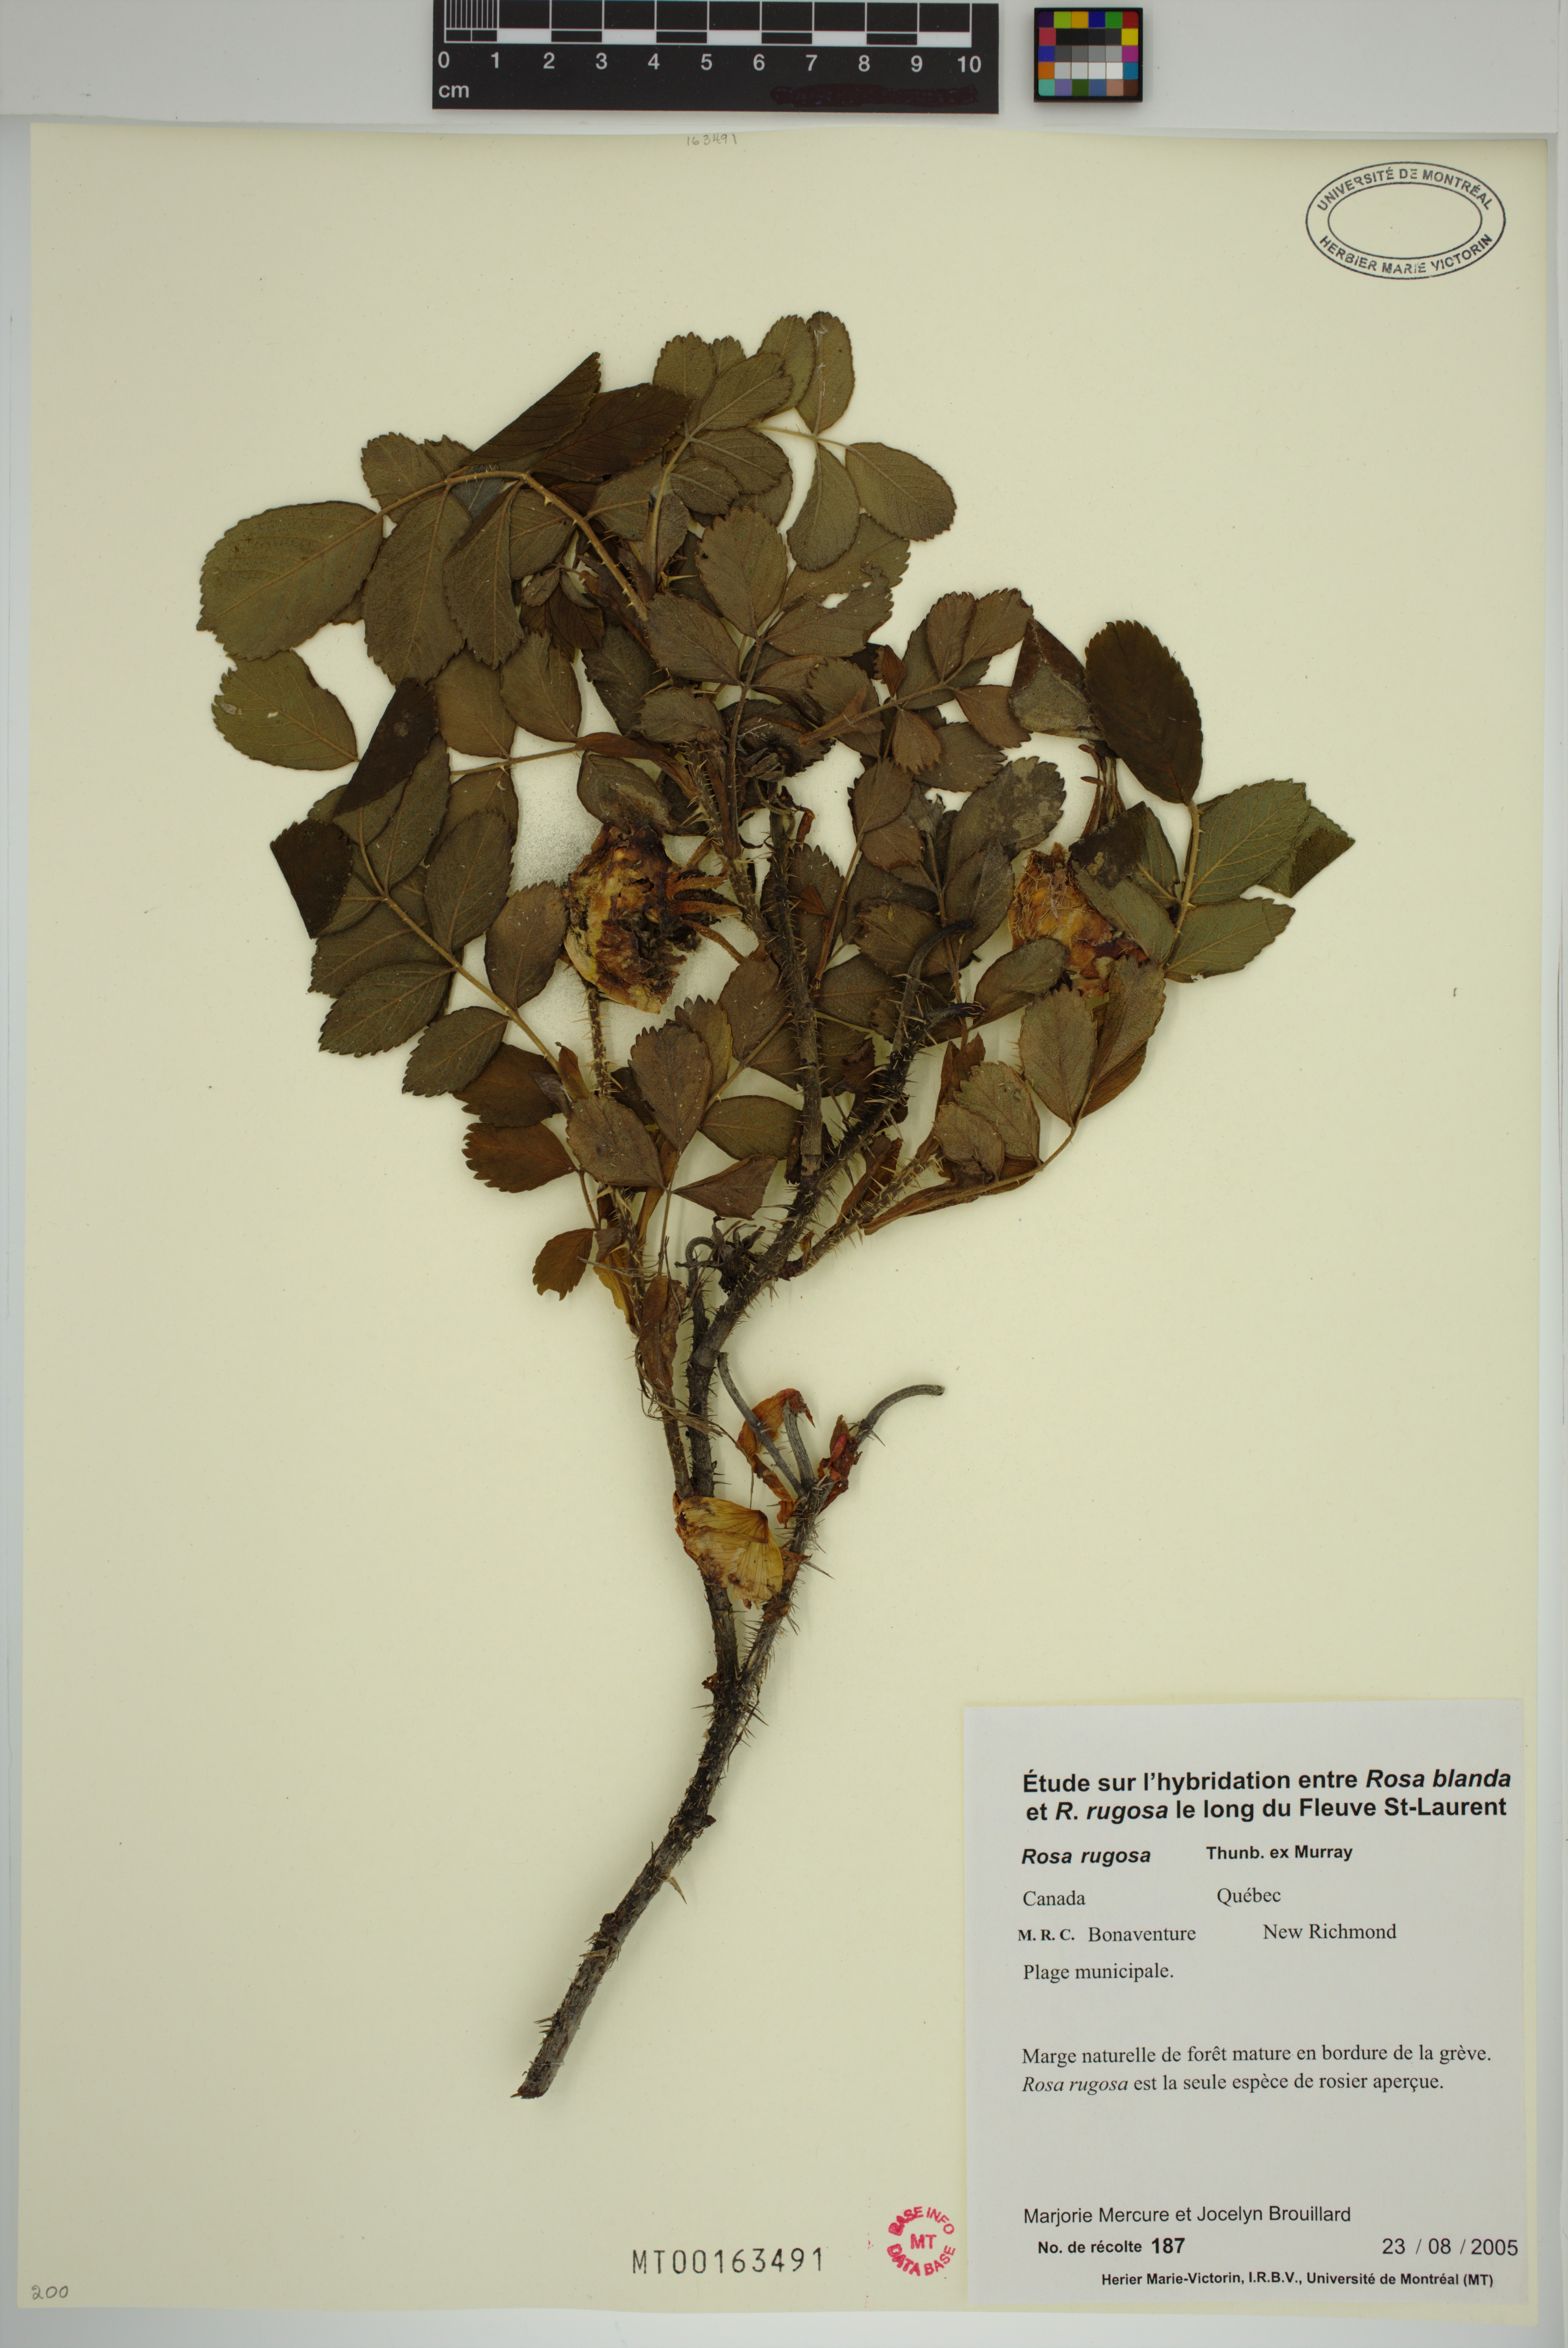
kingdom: Plantae
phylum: Tracheophyta
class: Magnoliopsida
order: Rosales
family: Rosaceae
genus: Rosa
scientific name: Rosa rugosa
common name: Japanese rose
